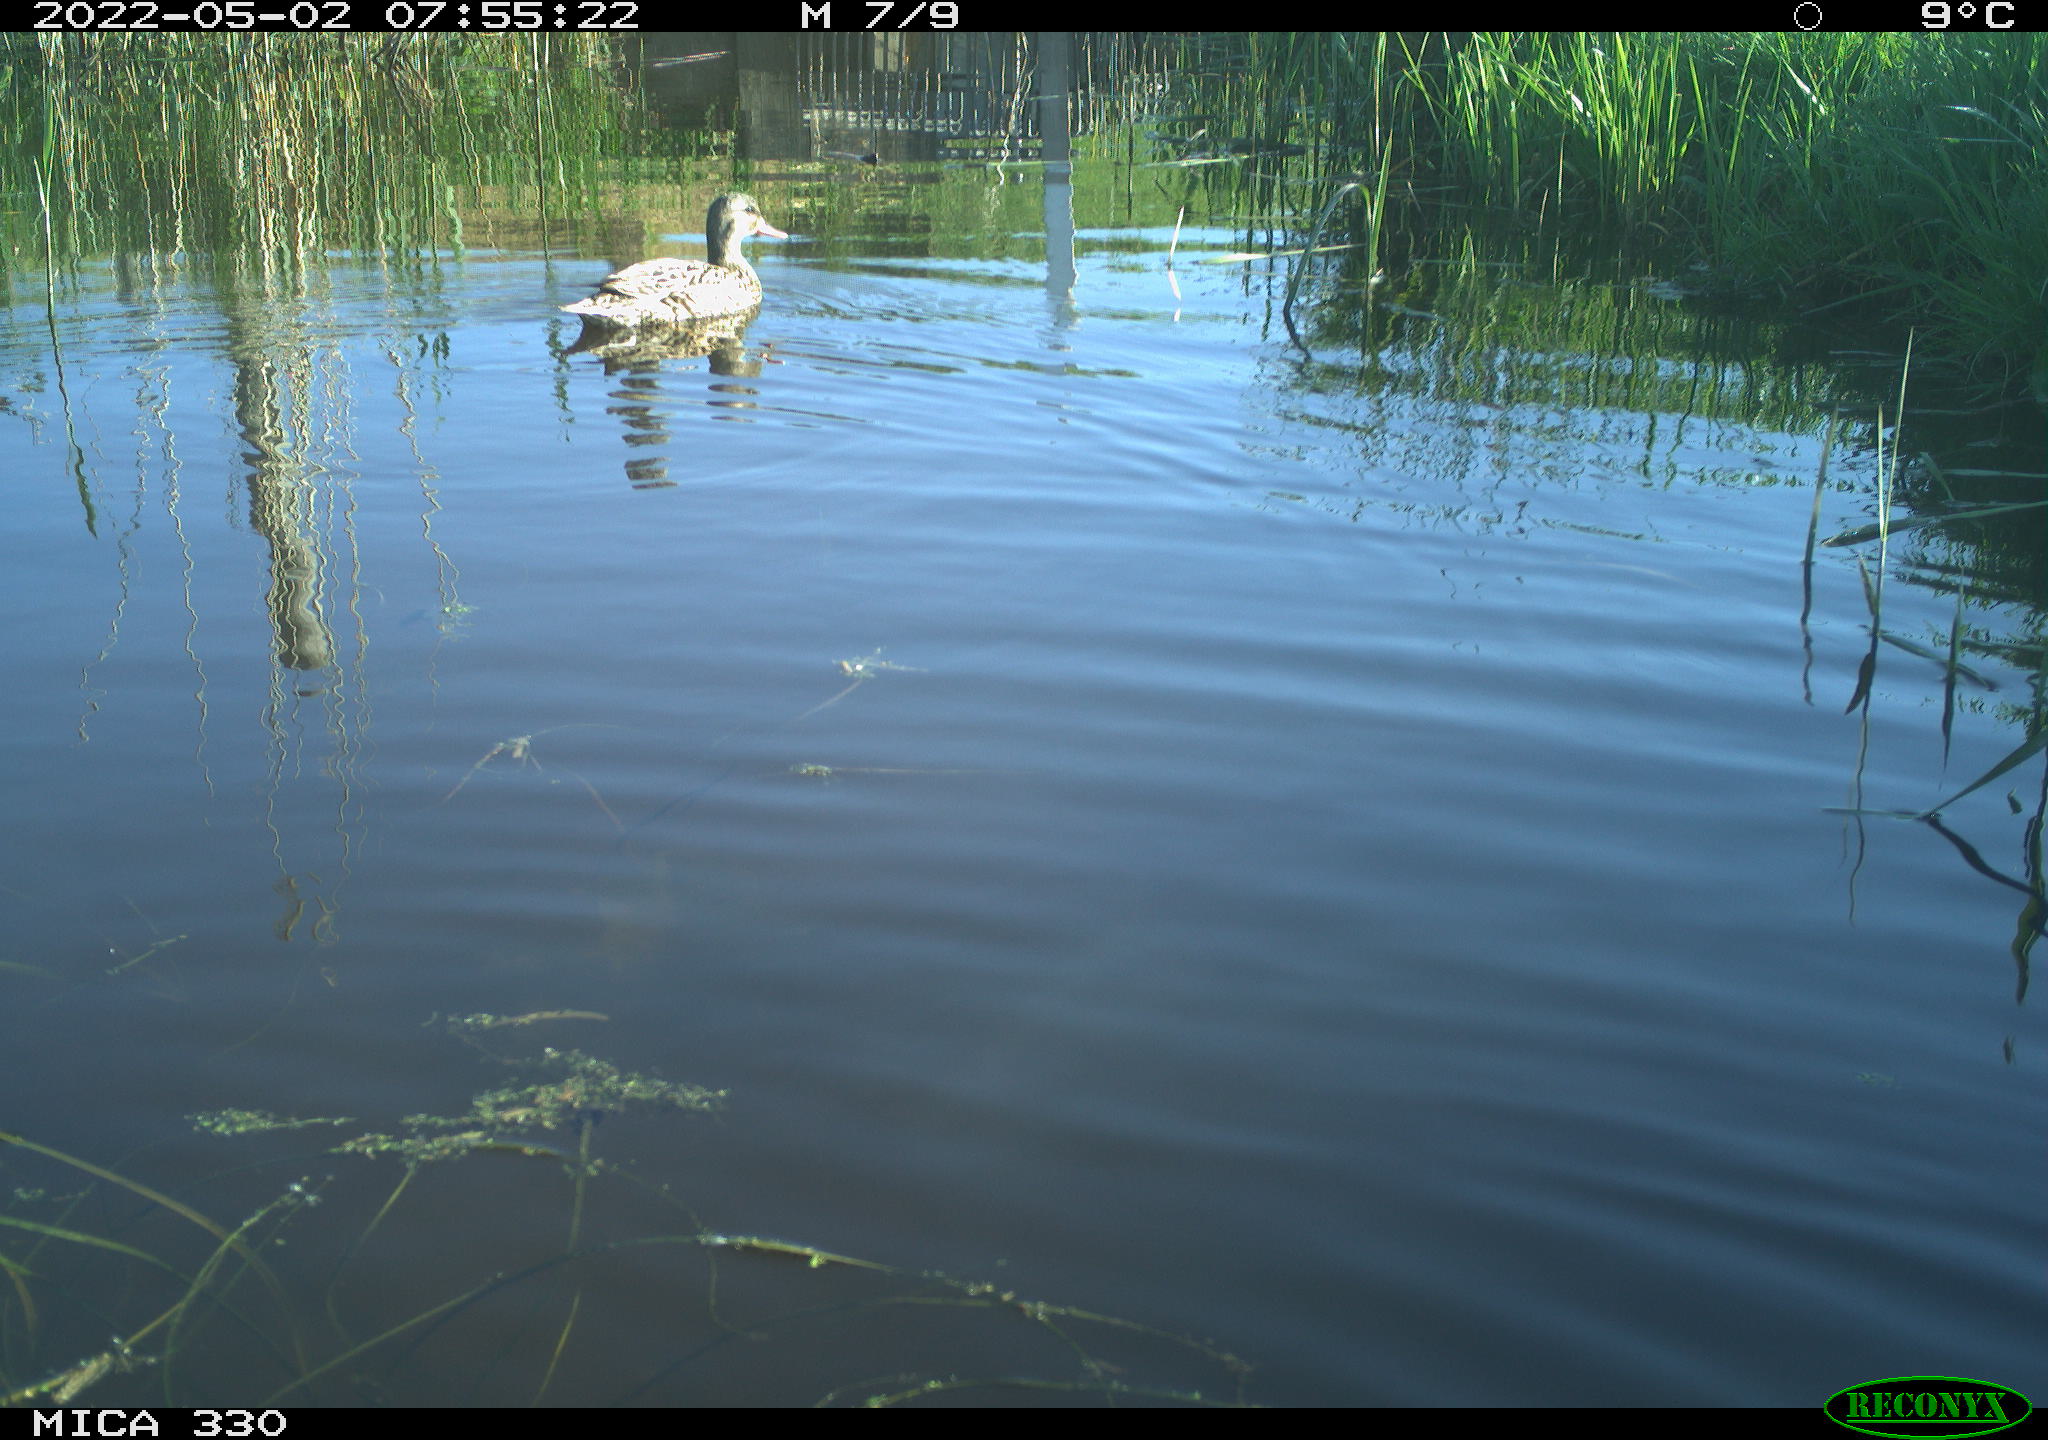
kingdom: Animalia
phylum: Chordata
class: Aves
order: Anseriformes
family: Anatidae
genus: Mareca
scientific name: Mareca strepera
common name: Gadwall
